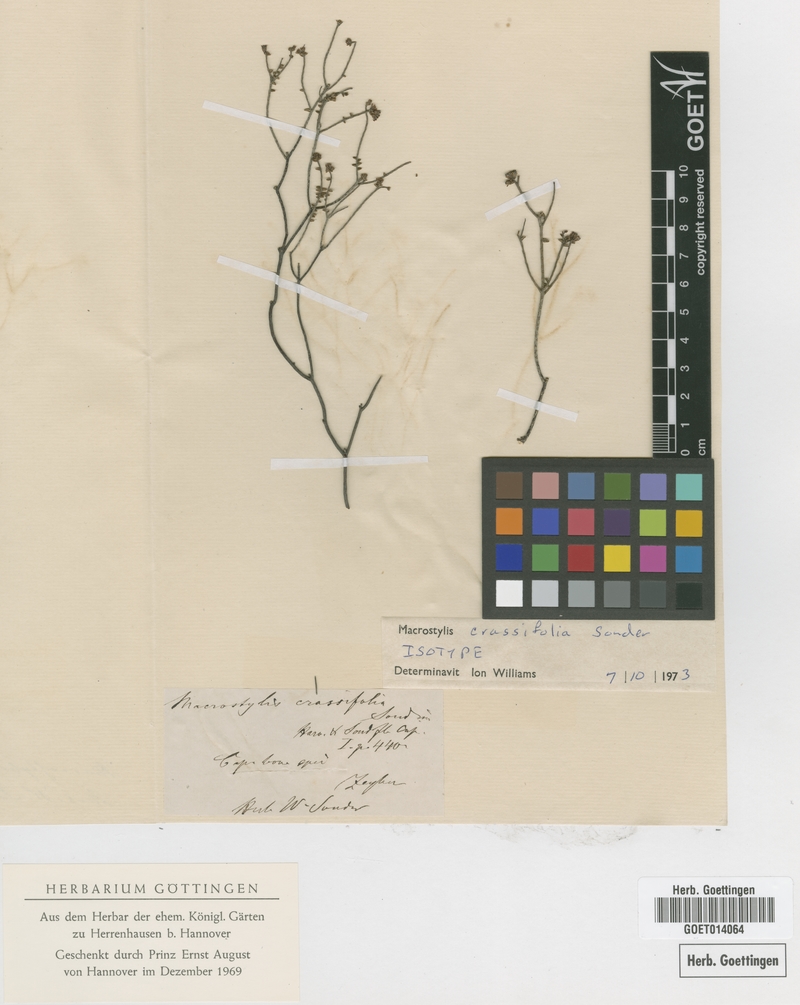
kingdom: Plantae
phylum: Tracheophyta
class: Magnoliopsida
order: Sapindales
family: Rutaceae
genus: Macrostylis
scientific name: Macrostylis crassifolia
